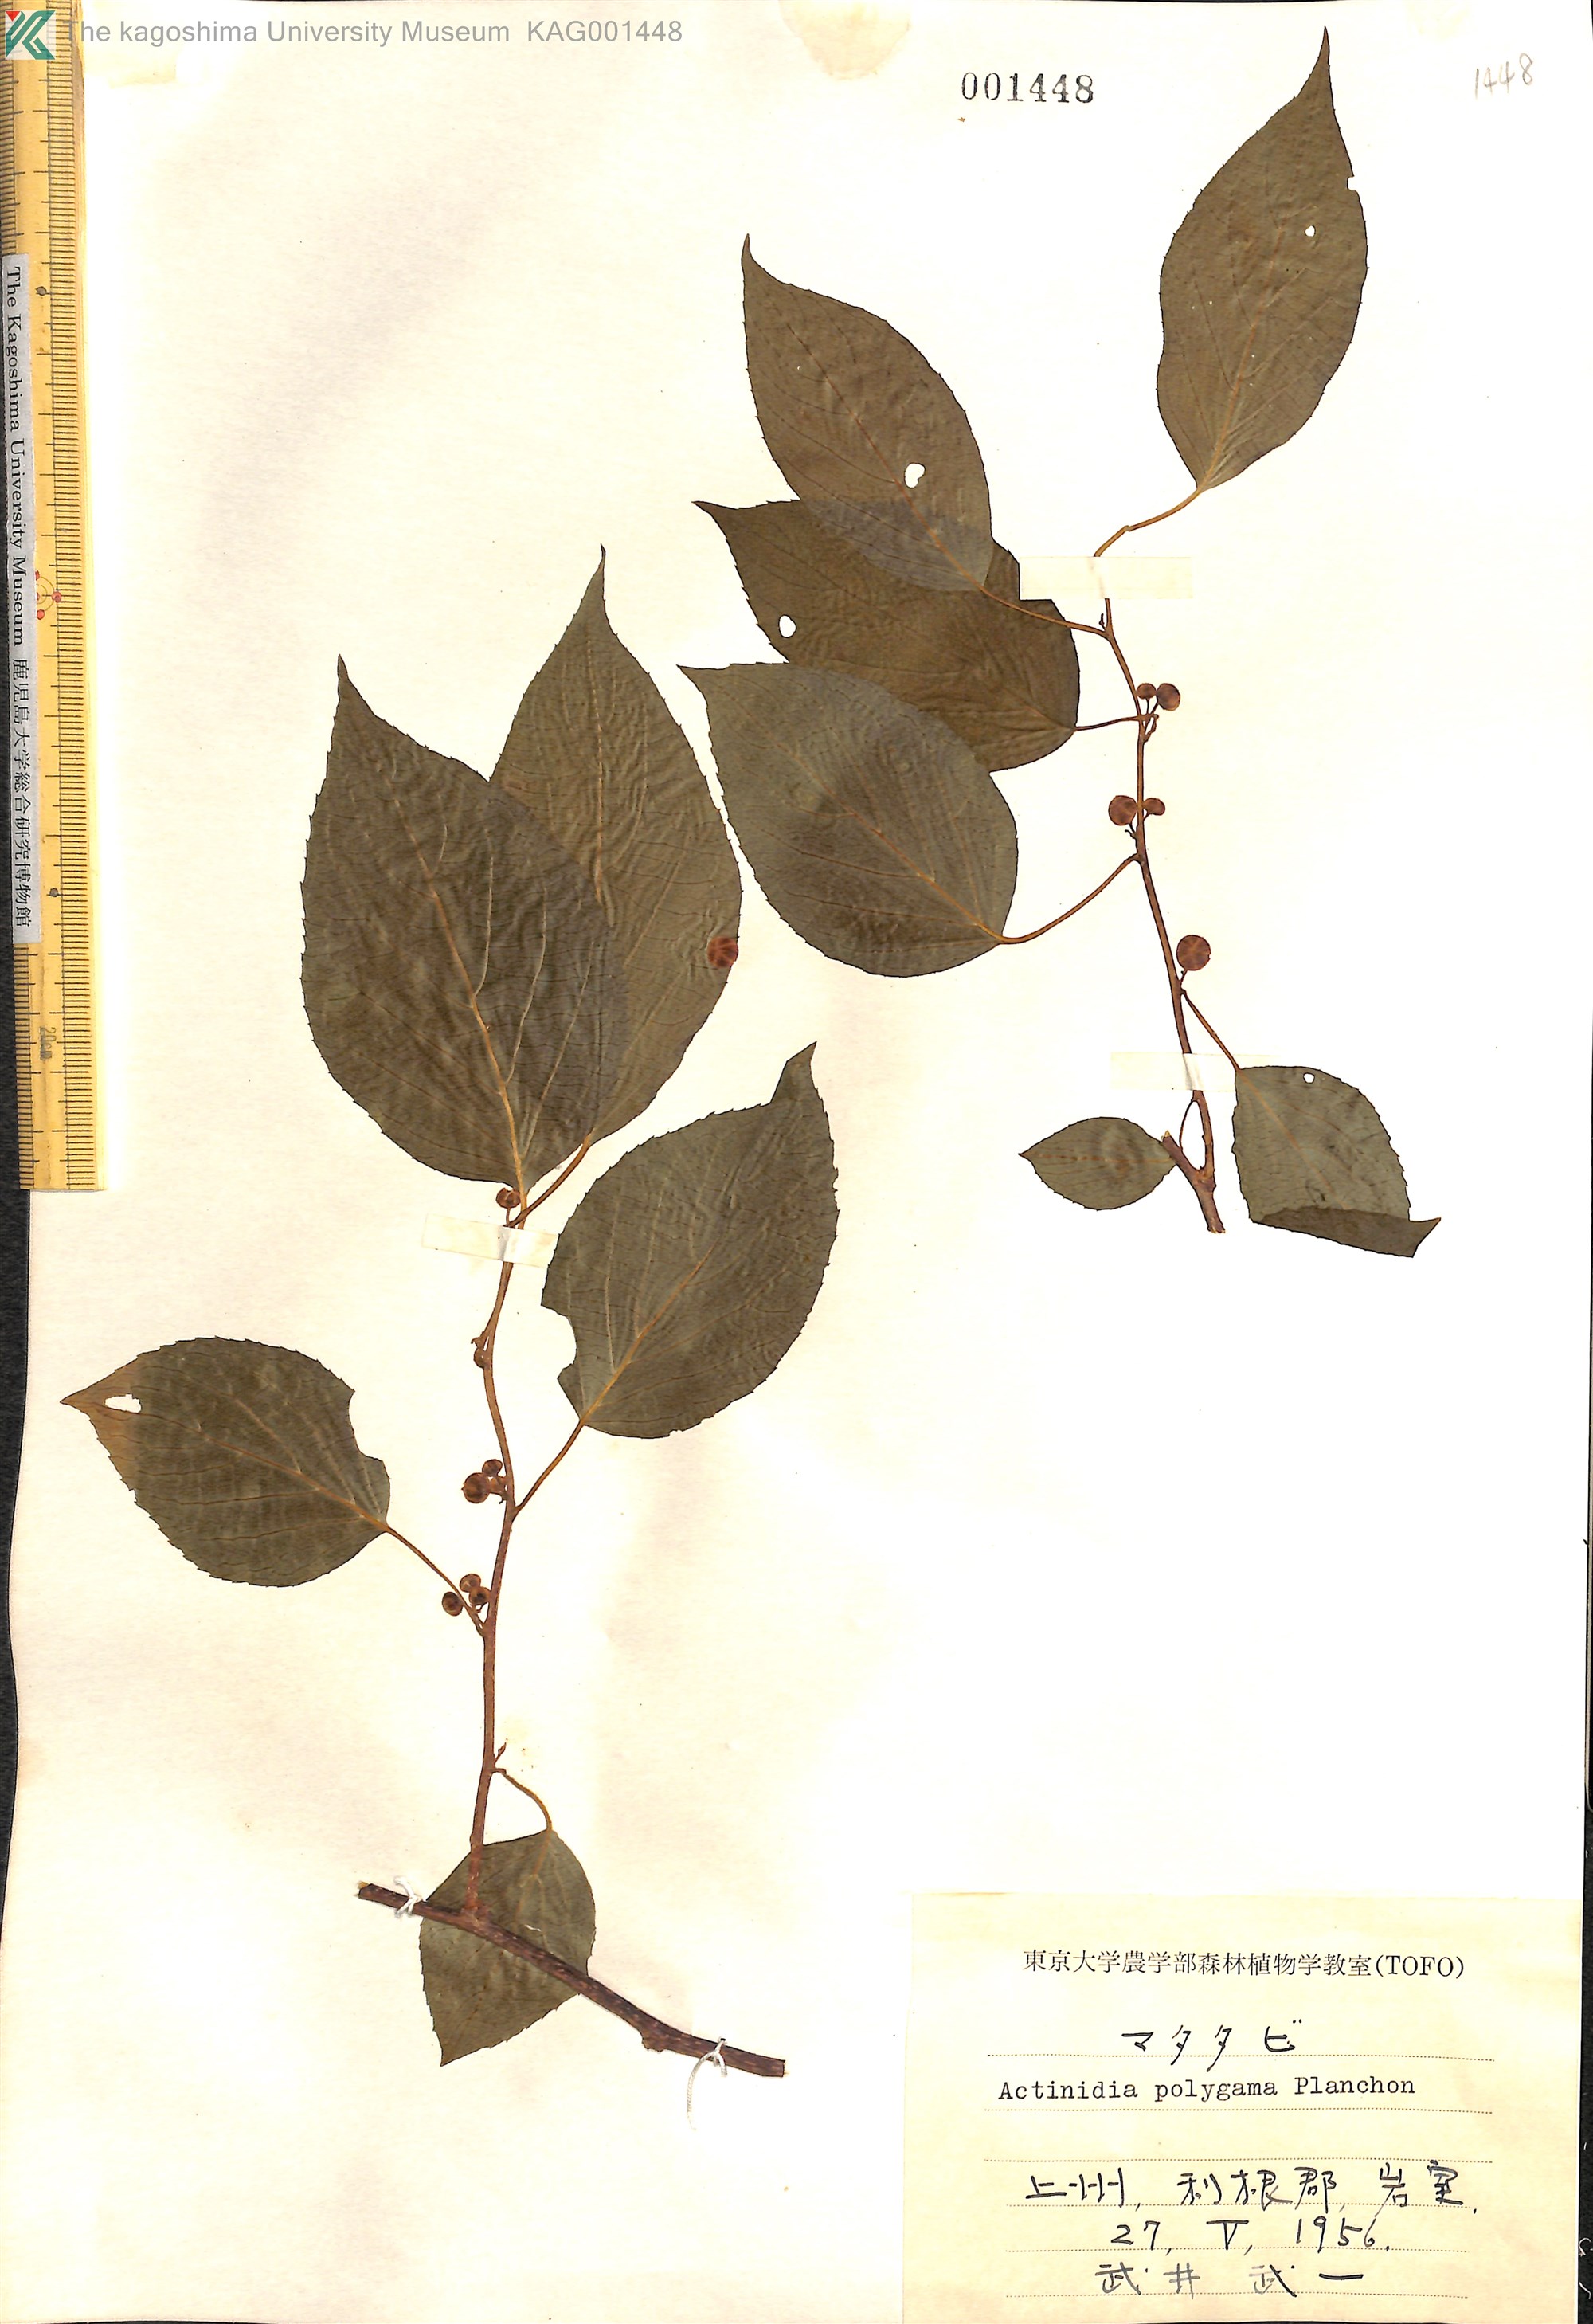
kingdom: Plantae
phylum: Tracheophyta
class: Magnoliopsida
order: Ericales
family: Actinidiaceae
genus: Actinidia
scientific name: Actinidia polygama
